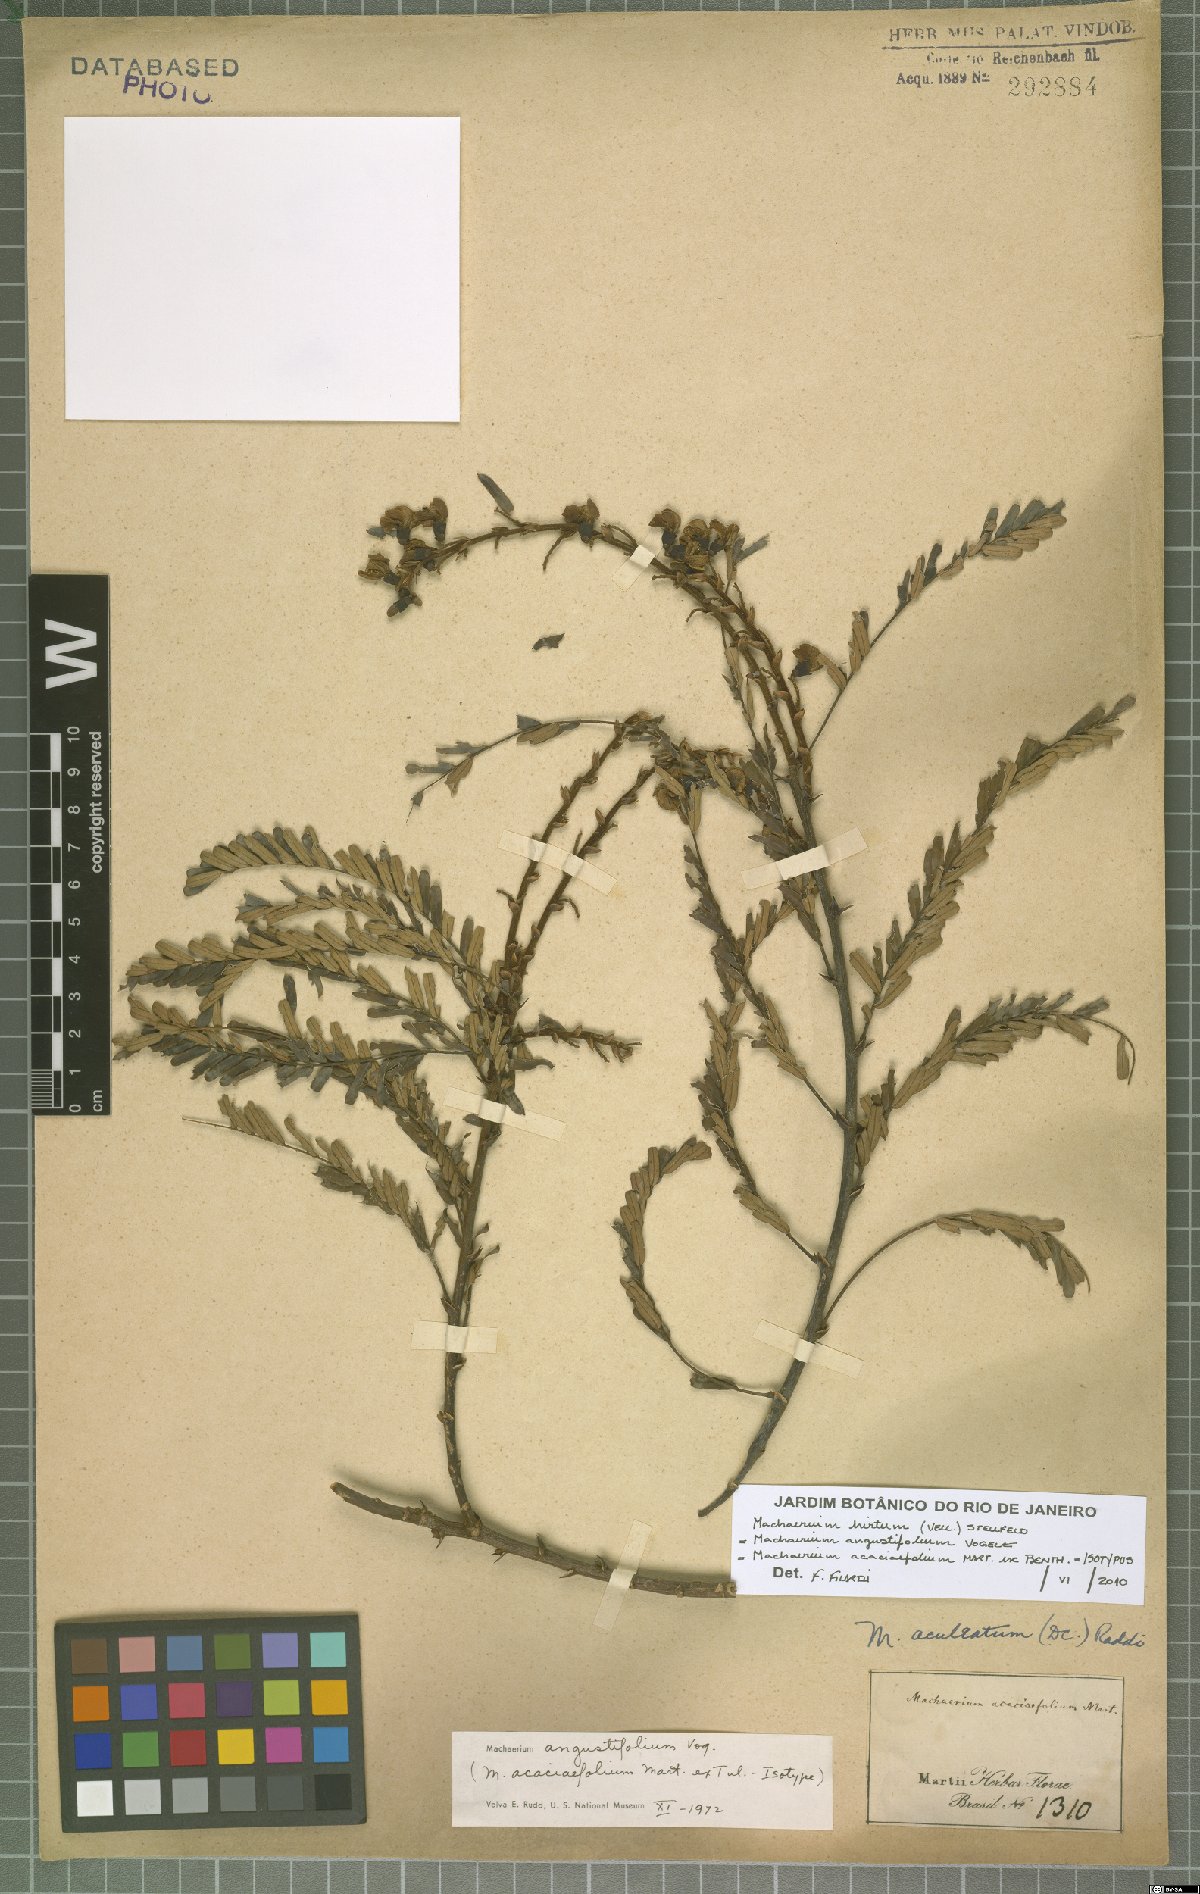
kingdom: Plantae
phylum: Tracheophyta
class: Magnoliopsida
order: Fabales
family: Fabaceae
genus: Machaerium
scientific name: Machaerium hirtum
